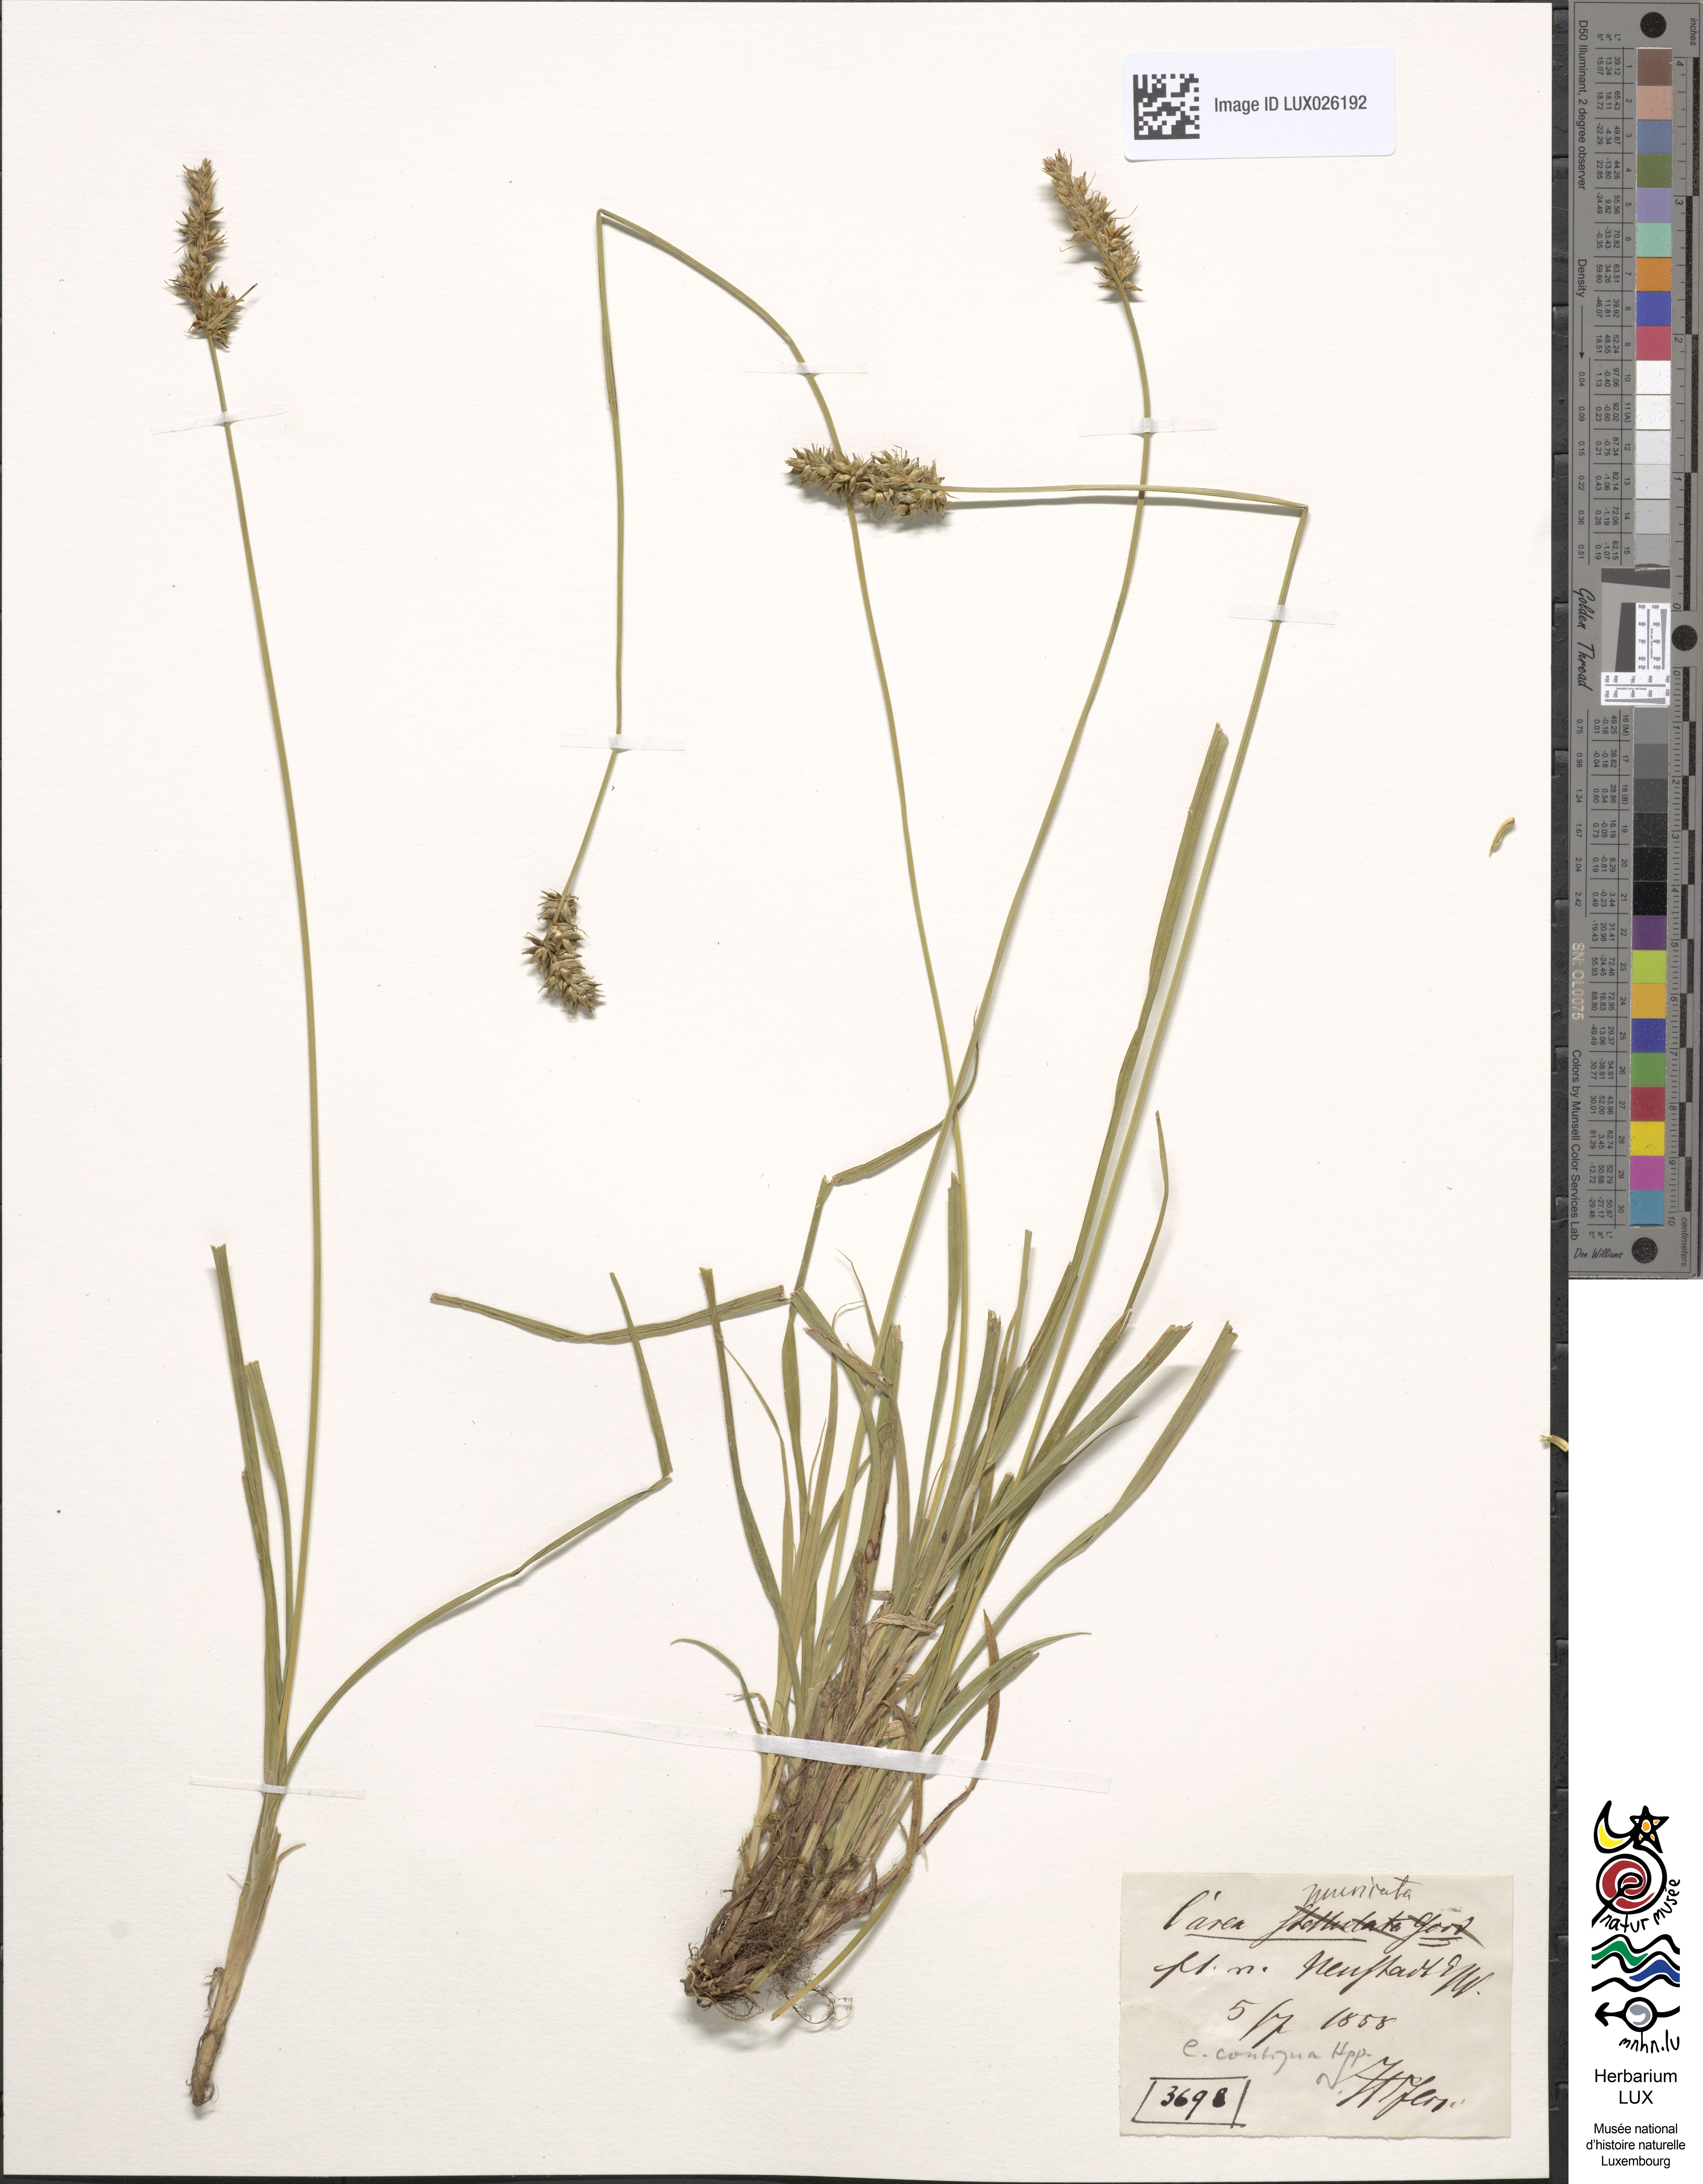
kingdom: Plantae
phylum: Tracheophyta
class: Liliopsida
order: Poales
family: Cyperaceae
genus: Carex
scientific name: Carex spicata
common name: Spiked sedge
